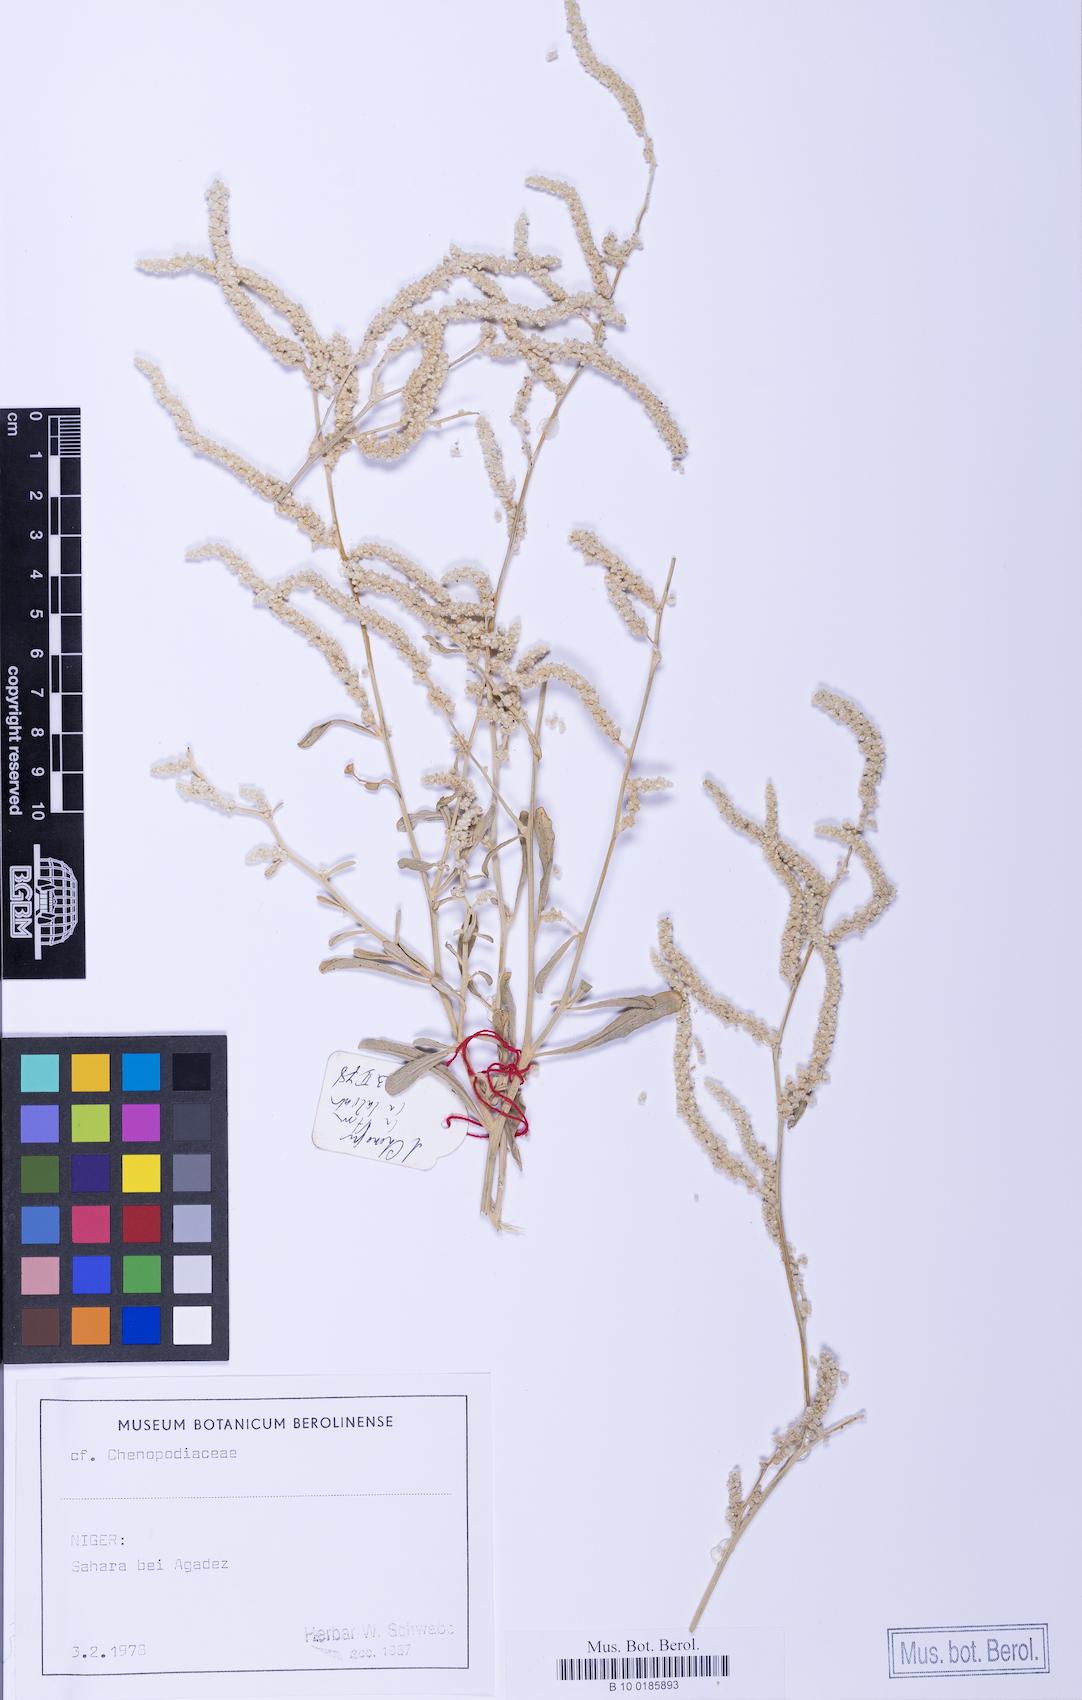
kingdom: Plantae
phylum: Tracheophyta
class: Magnoliopsida
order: Caryophyllales
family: Amaranthaceae
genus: Ouret
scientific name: Ouret lanata
